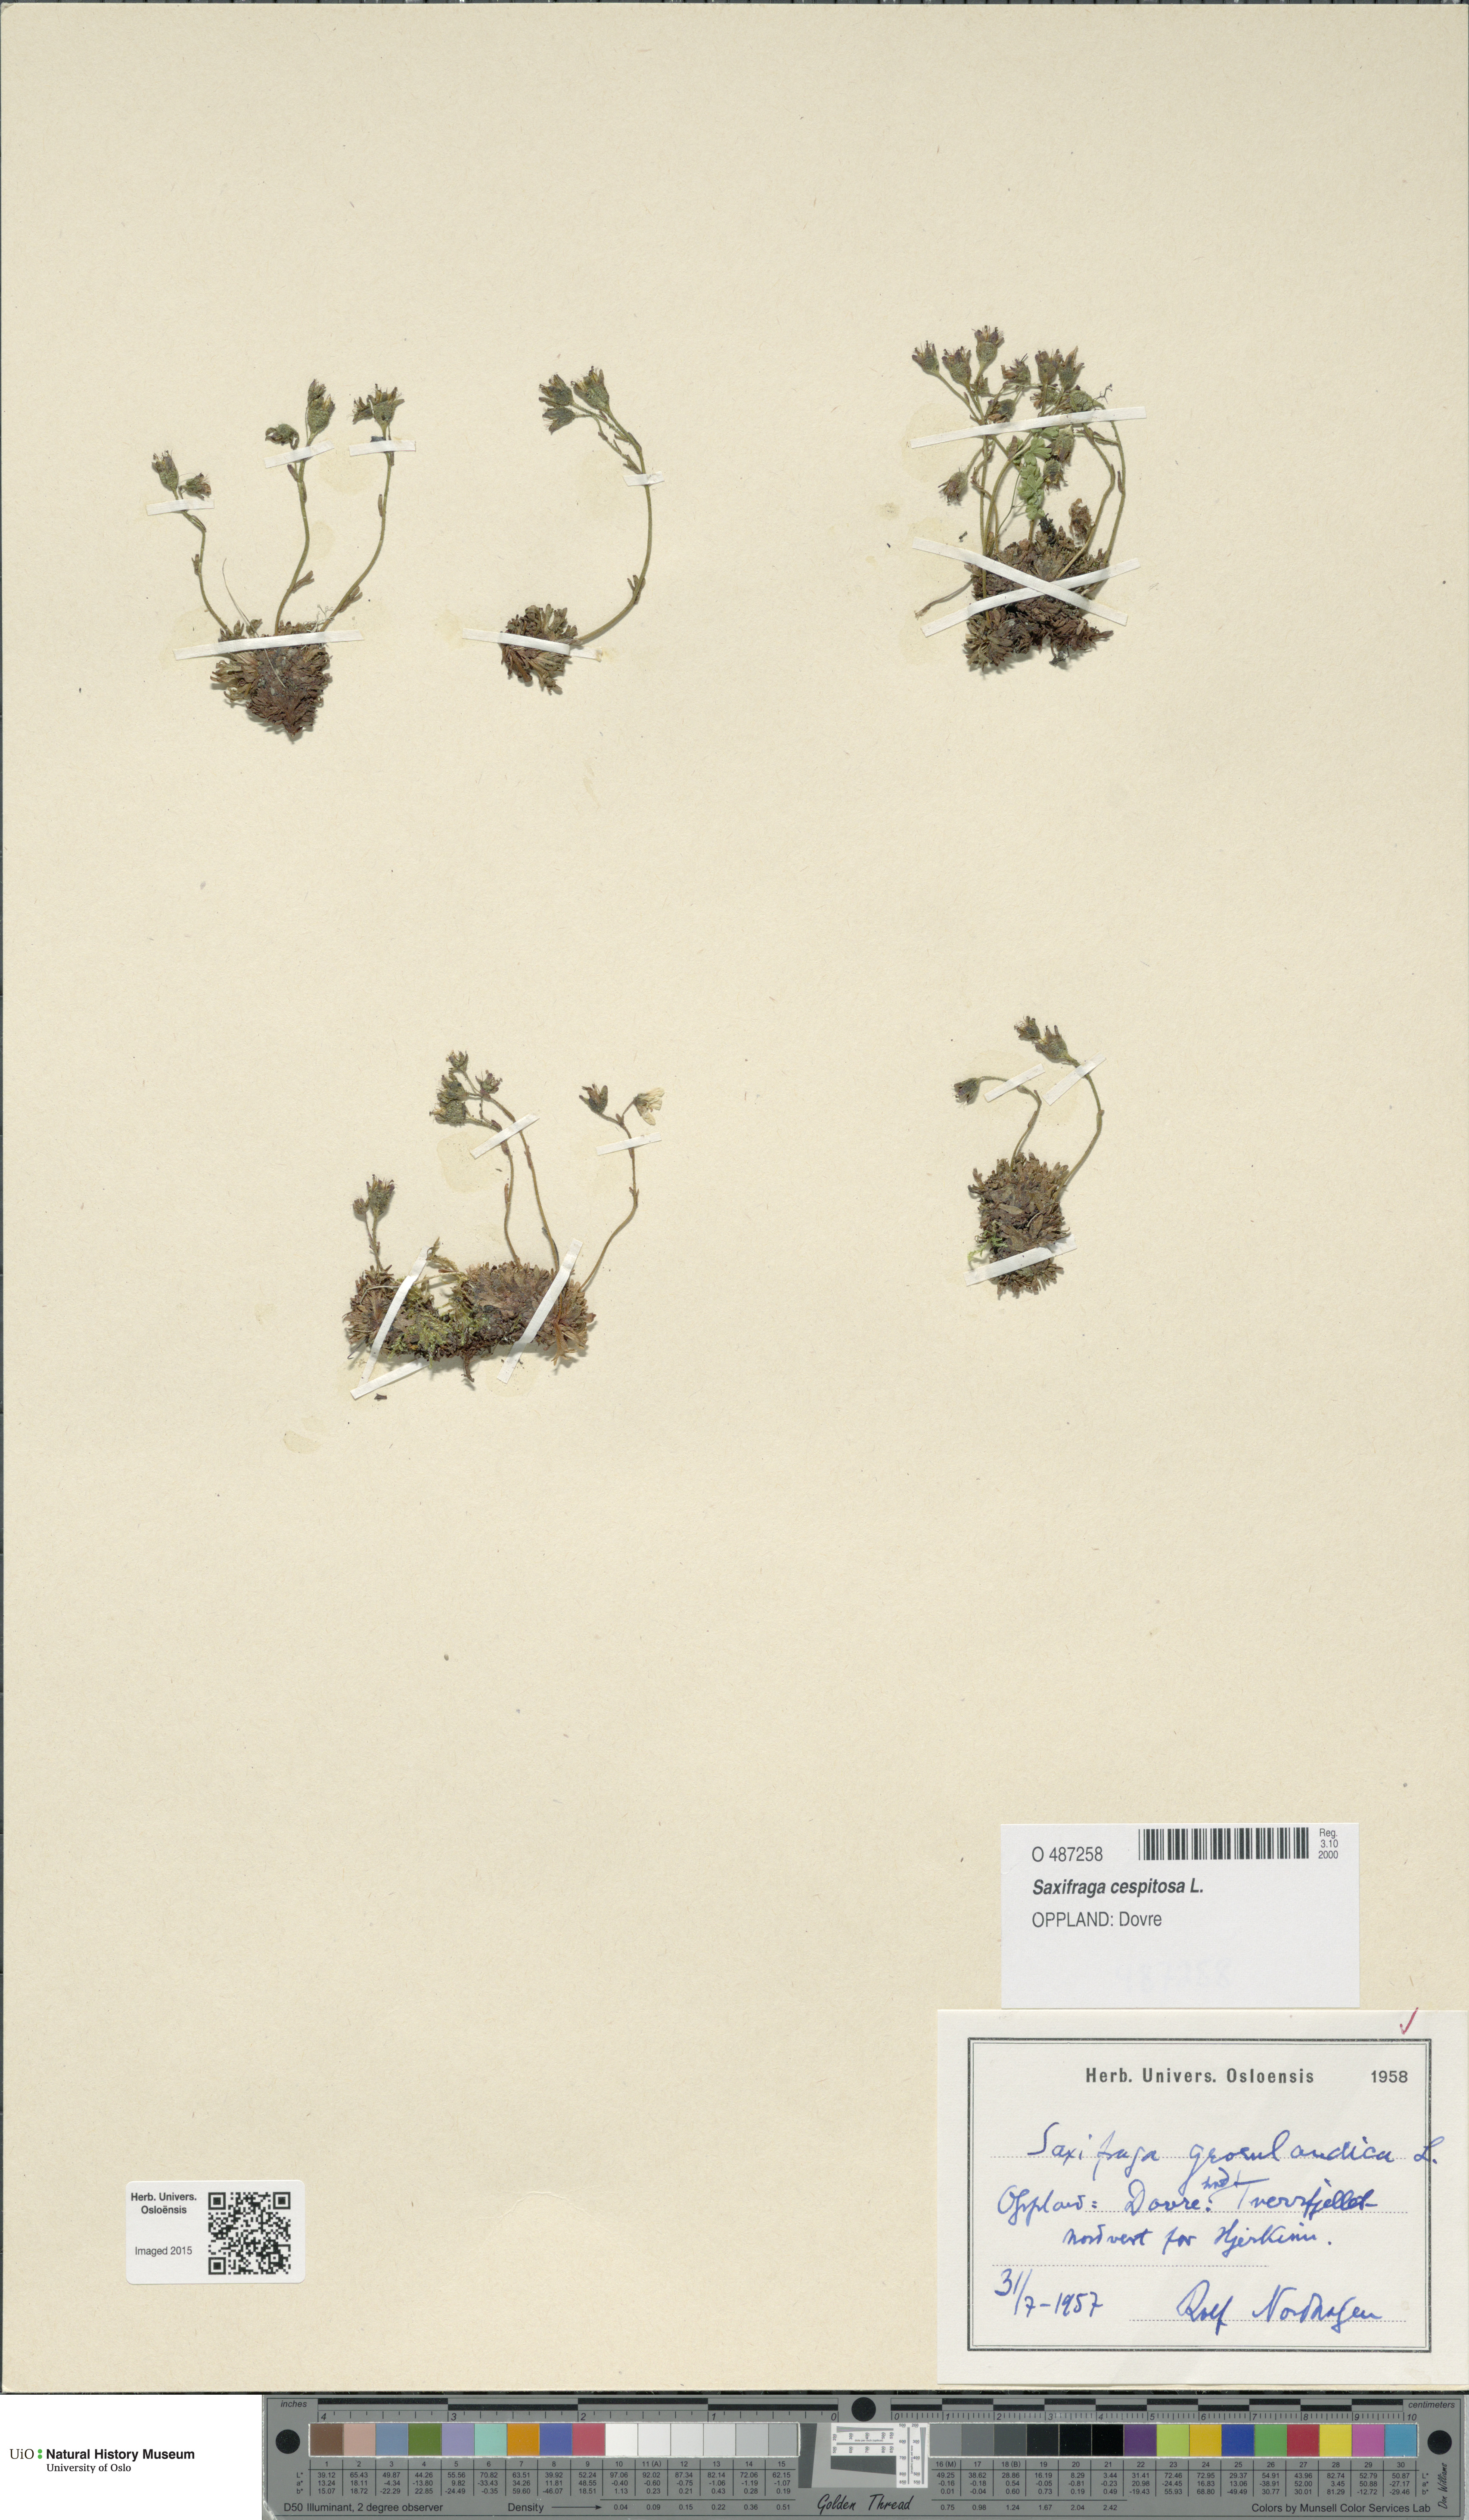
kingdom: Plantae
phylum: Tracheophyta
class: Magnoliopsida
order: Saxifragales
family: Saxifragaceae
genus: Saxifraga
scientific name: Saxifraga cespitosa
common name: Tufted saxifrage
